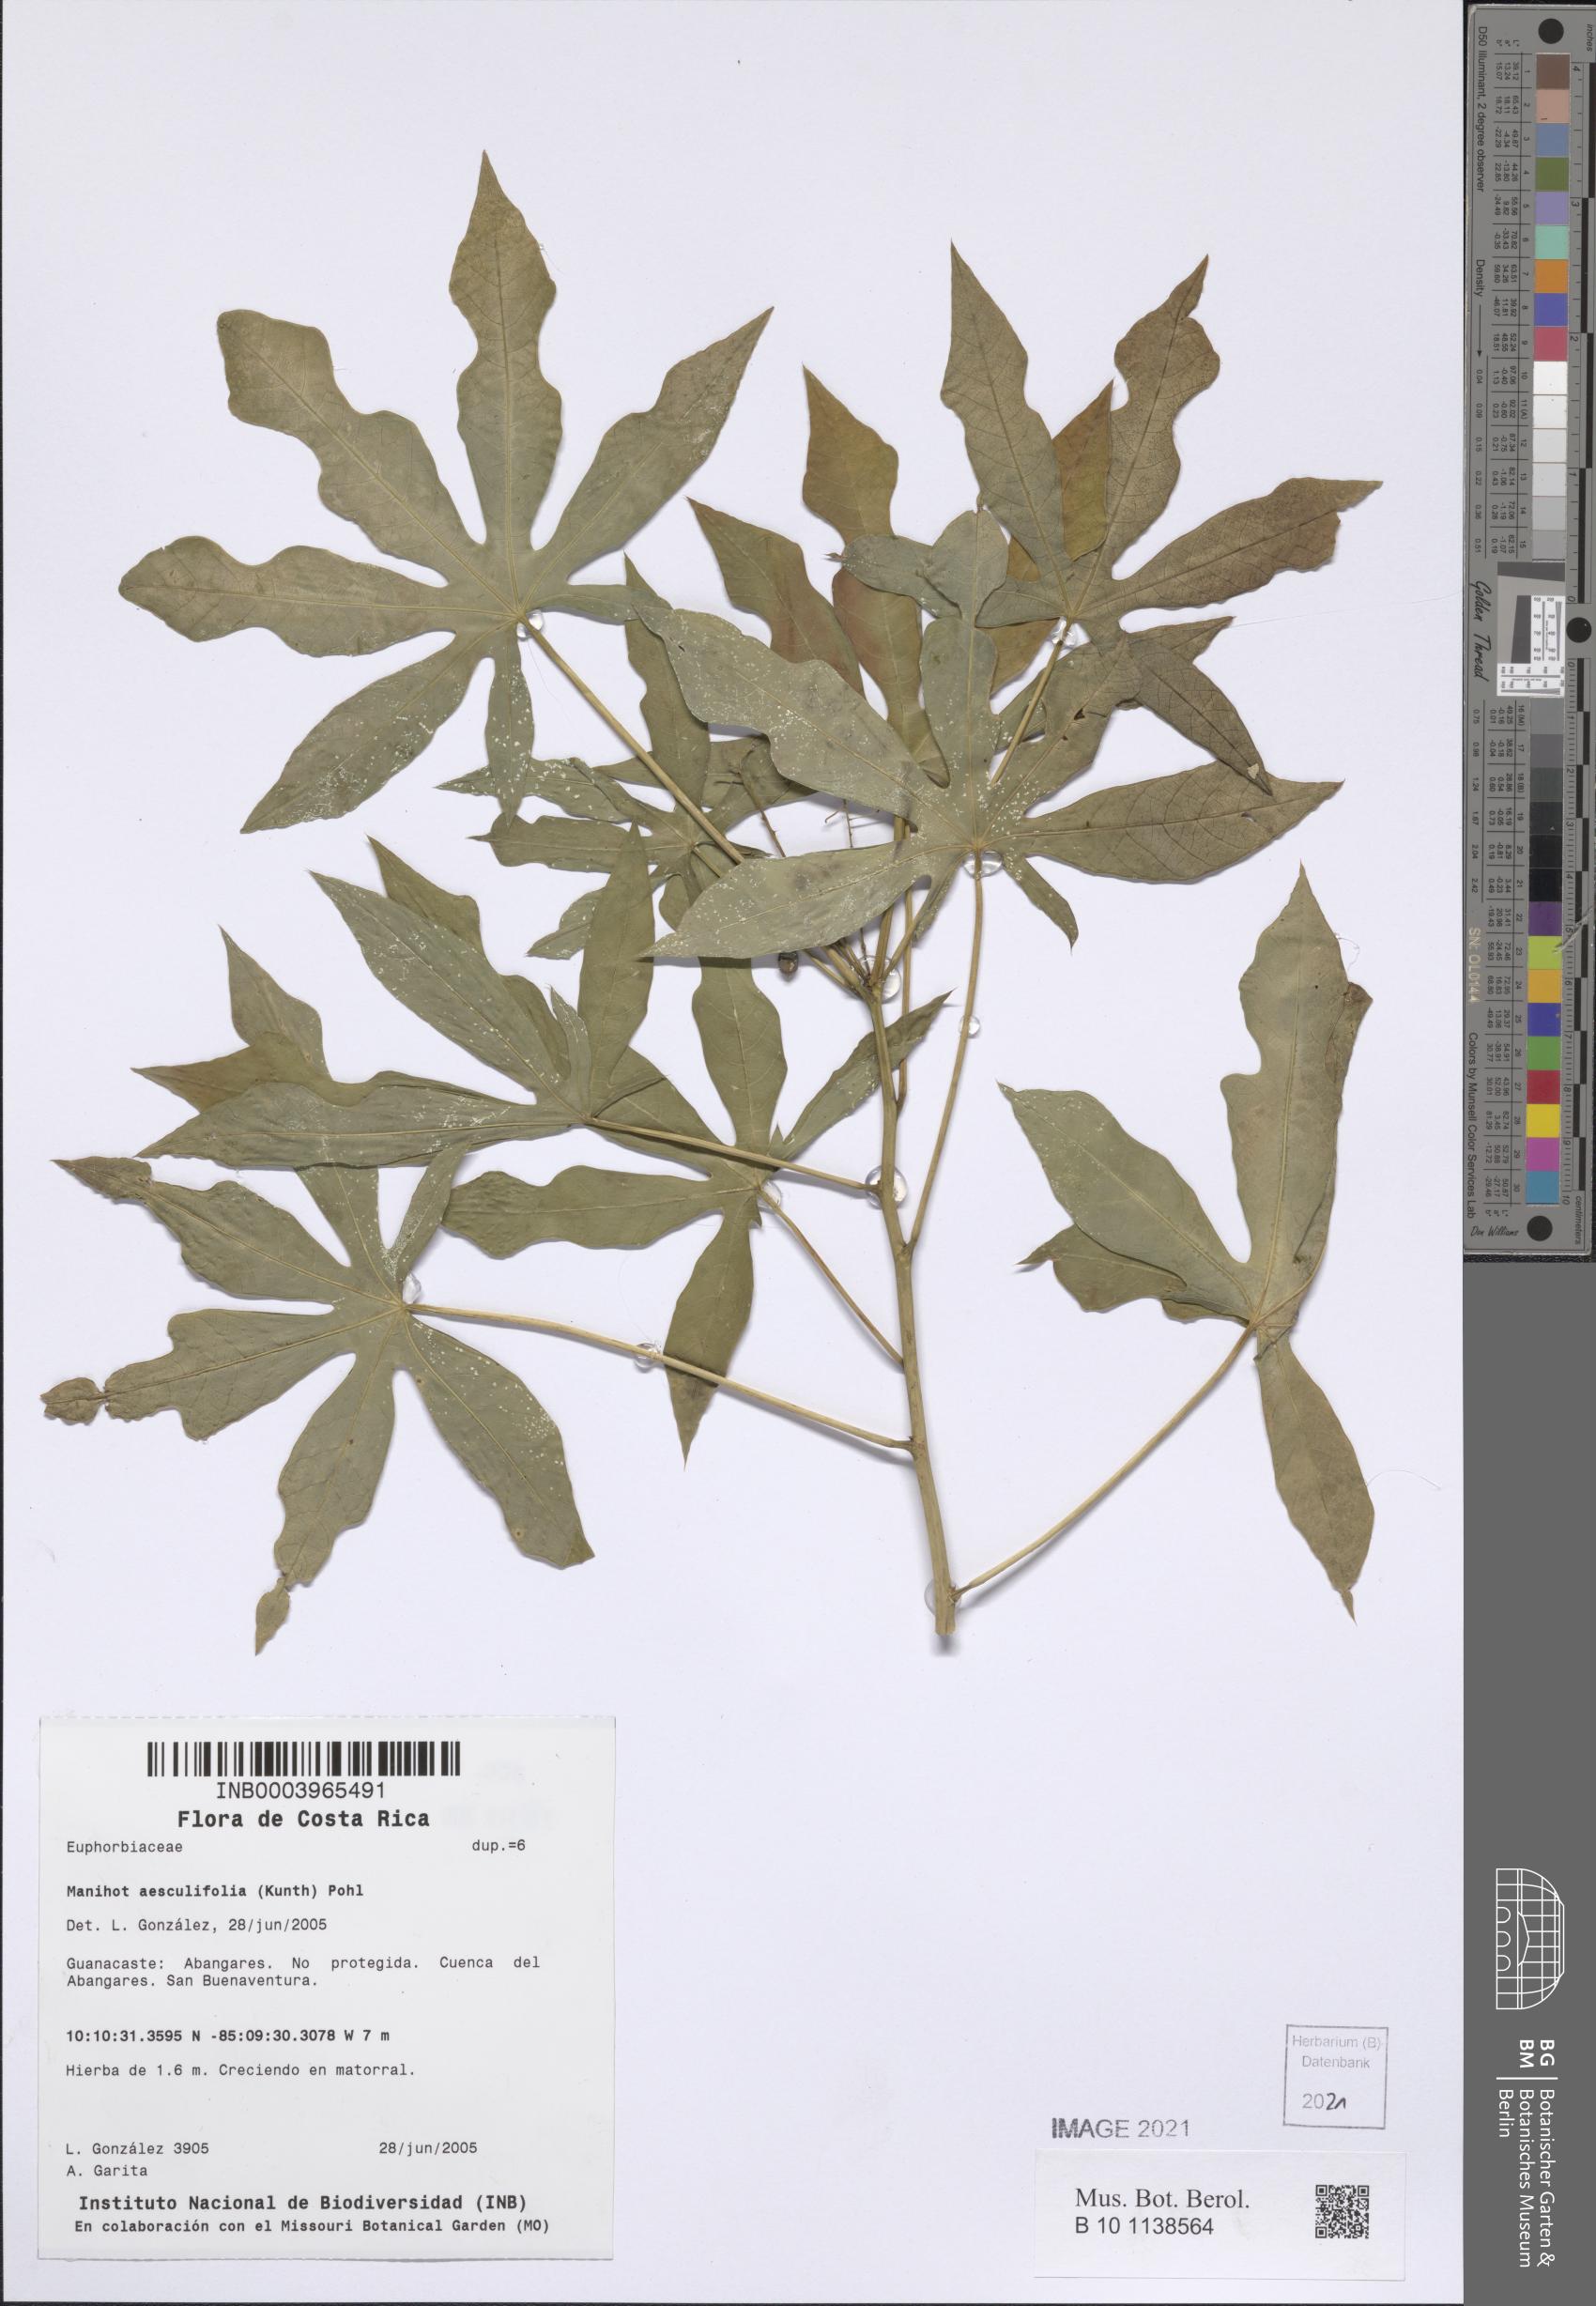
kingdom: Plantae
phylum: Tracheophyta
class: Magnoliopsida
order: Malpighiales
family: Euphorbiaceae
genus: Manihot
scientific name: Manihot aesculifolia
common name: Buckeye-leafed cassava
